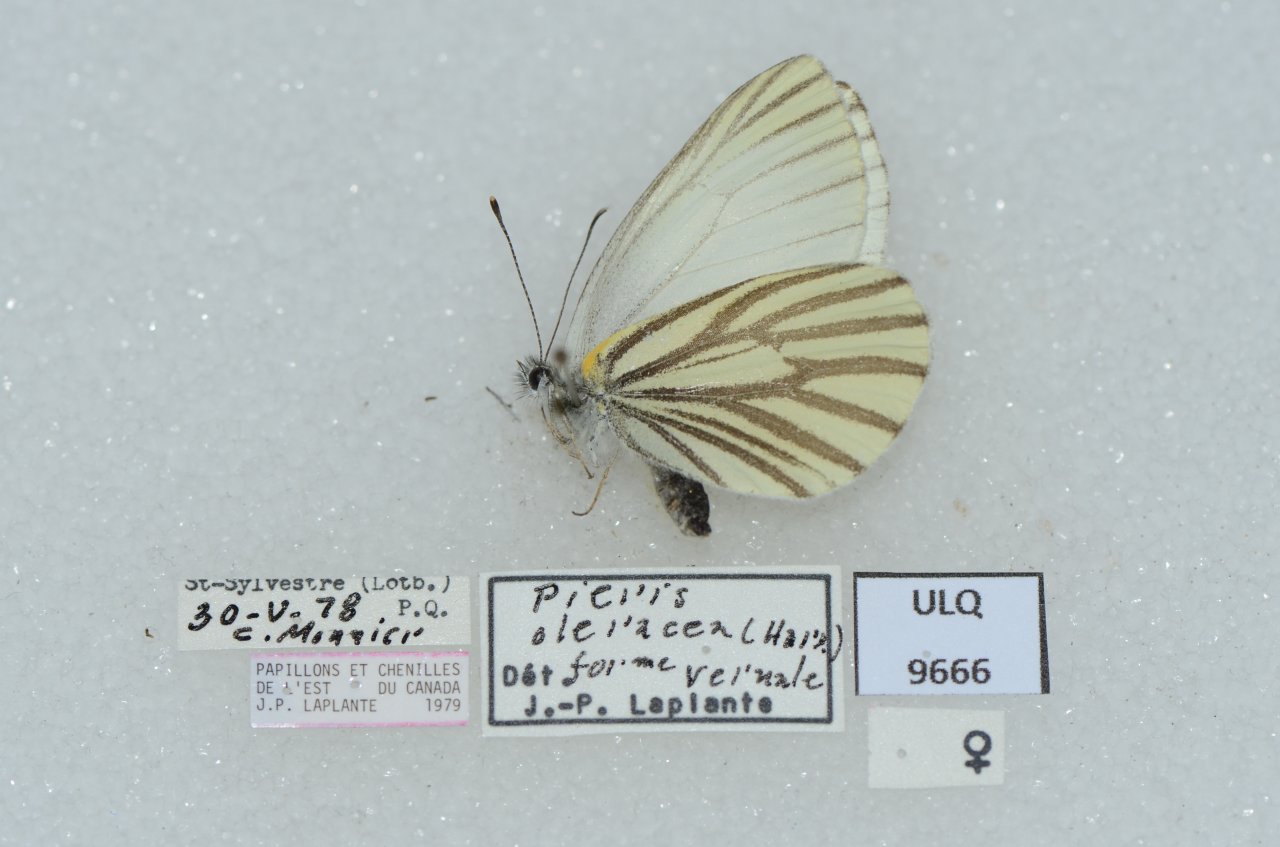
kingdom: Animalia
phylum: Arthropoda
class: Insecta
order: Lepidoptera
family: Pieridae
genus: Pieris
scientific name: Pieris oleracea
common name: Mustard White
